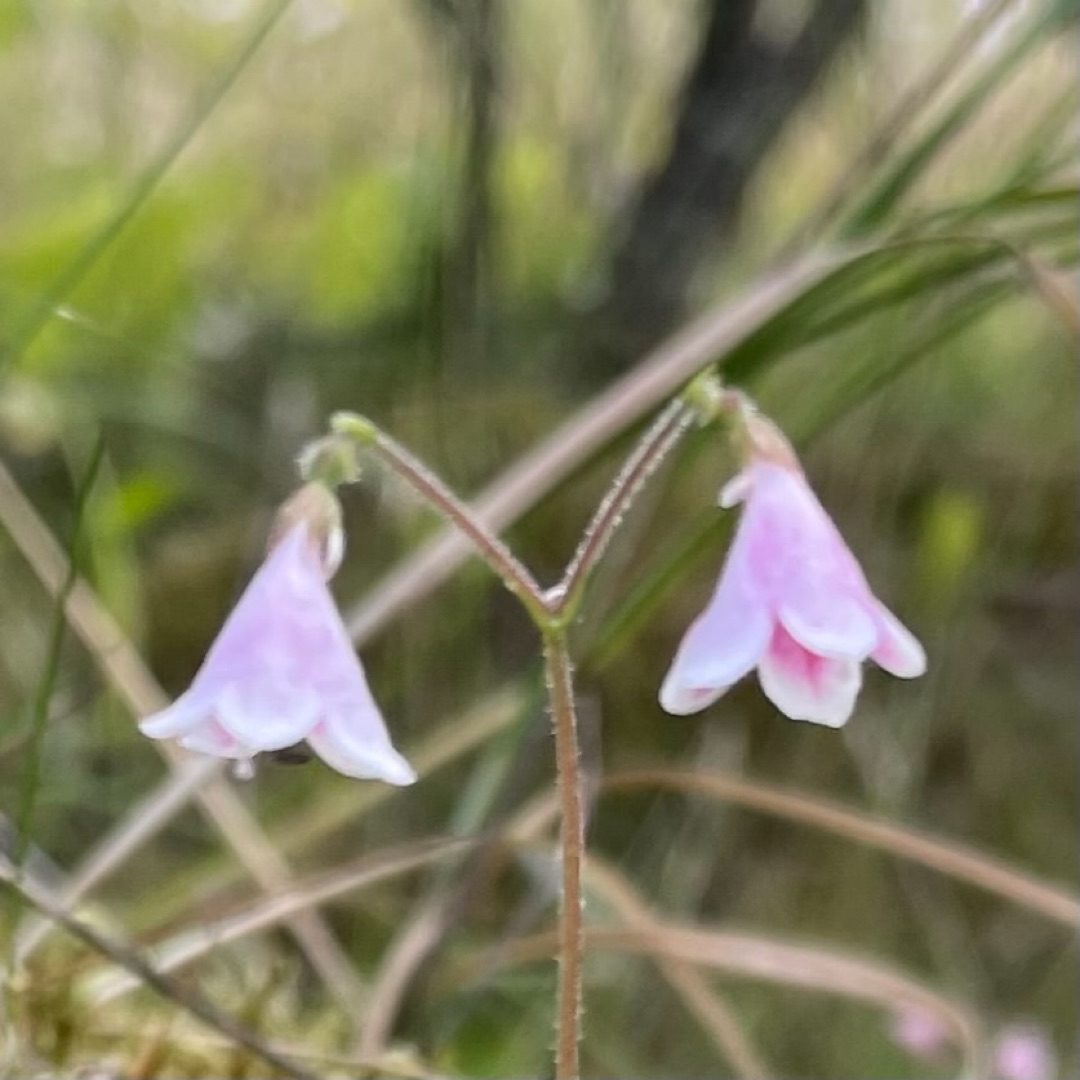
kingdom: Plantae
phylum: Tracheophyta
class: Magnoliopsida
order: Dipsacales
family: Caprifoliaceae
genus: Linnaea
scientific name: Linnaea borealis
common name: Linnæa
